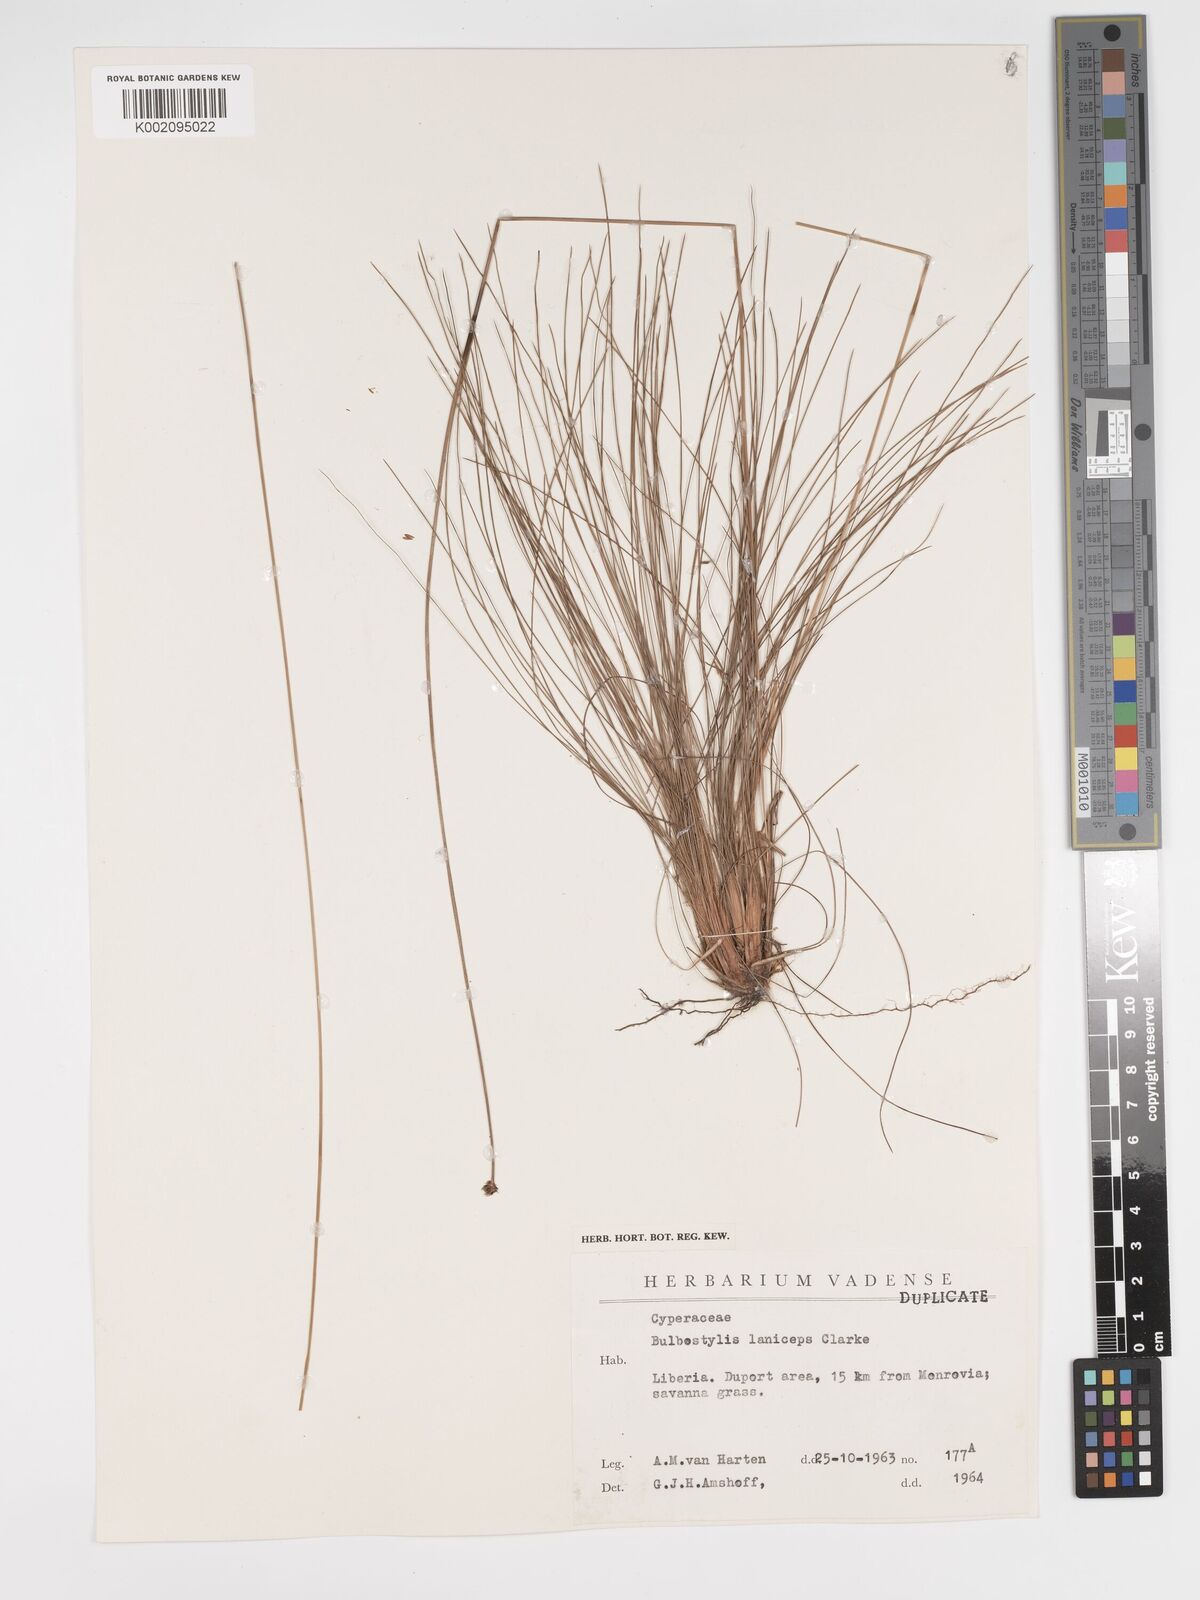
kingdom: Plantae
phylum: Tracheophyta
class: Liliopsida
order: Poales
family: Cyperaceae
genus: Bulbostylis
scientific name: Bulbostylis laniceps
